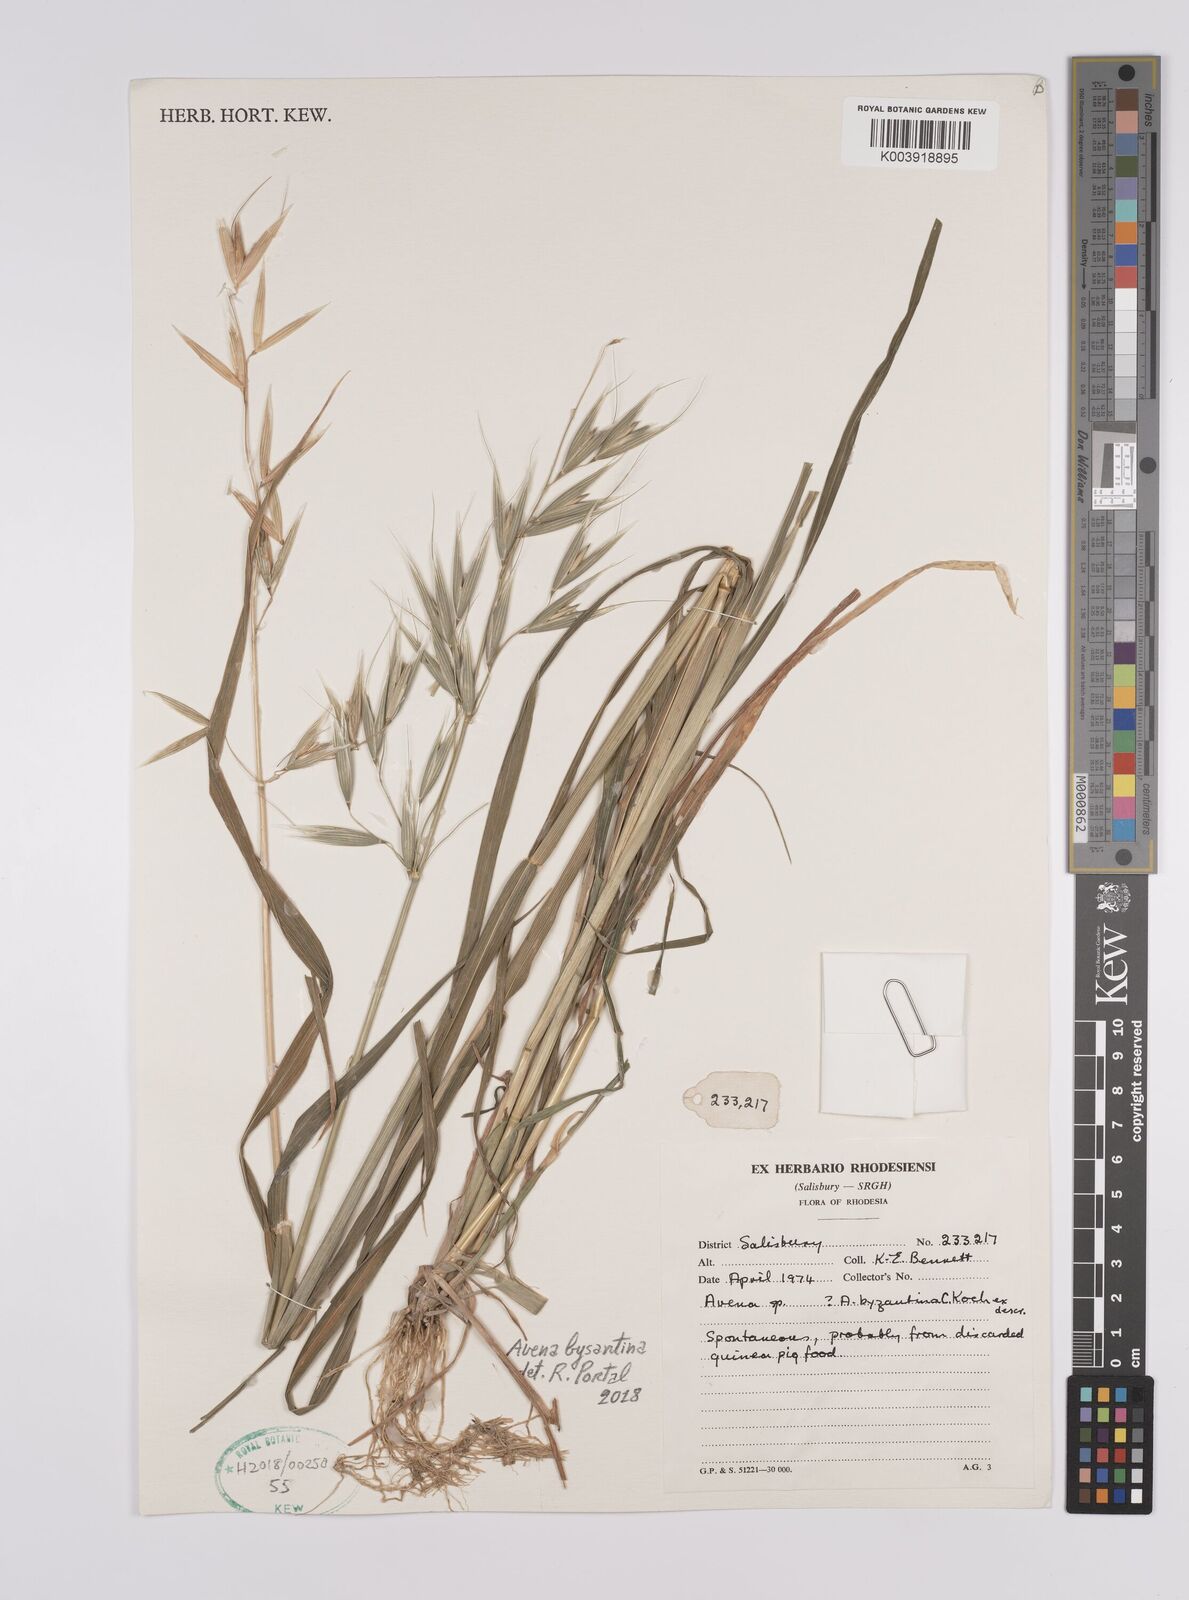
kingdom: Plantae
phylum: Tracheophyta
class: Liliopsida
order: Poales
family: Poaceae
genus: Avena
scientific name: Avena byzantina
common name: Algerian oat
